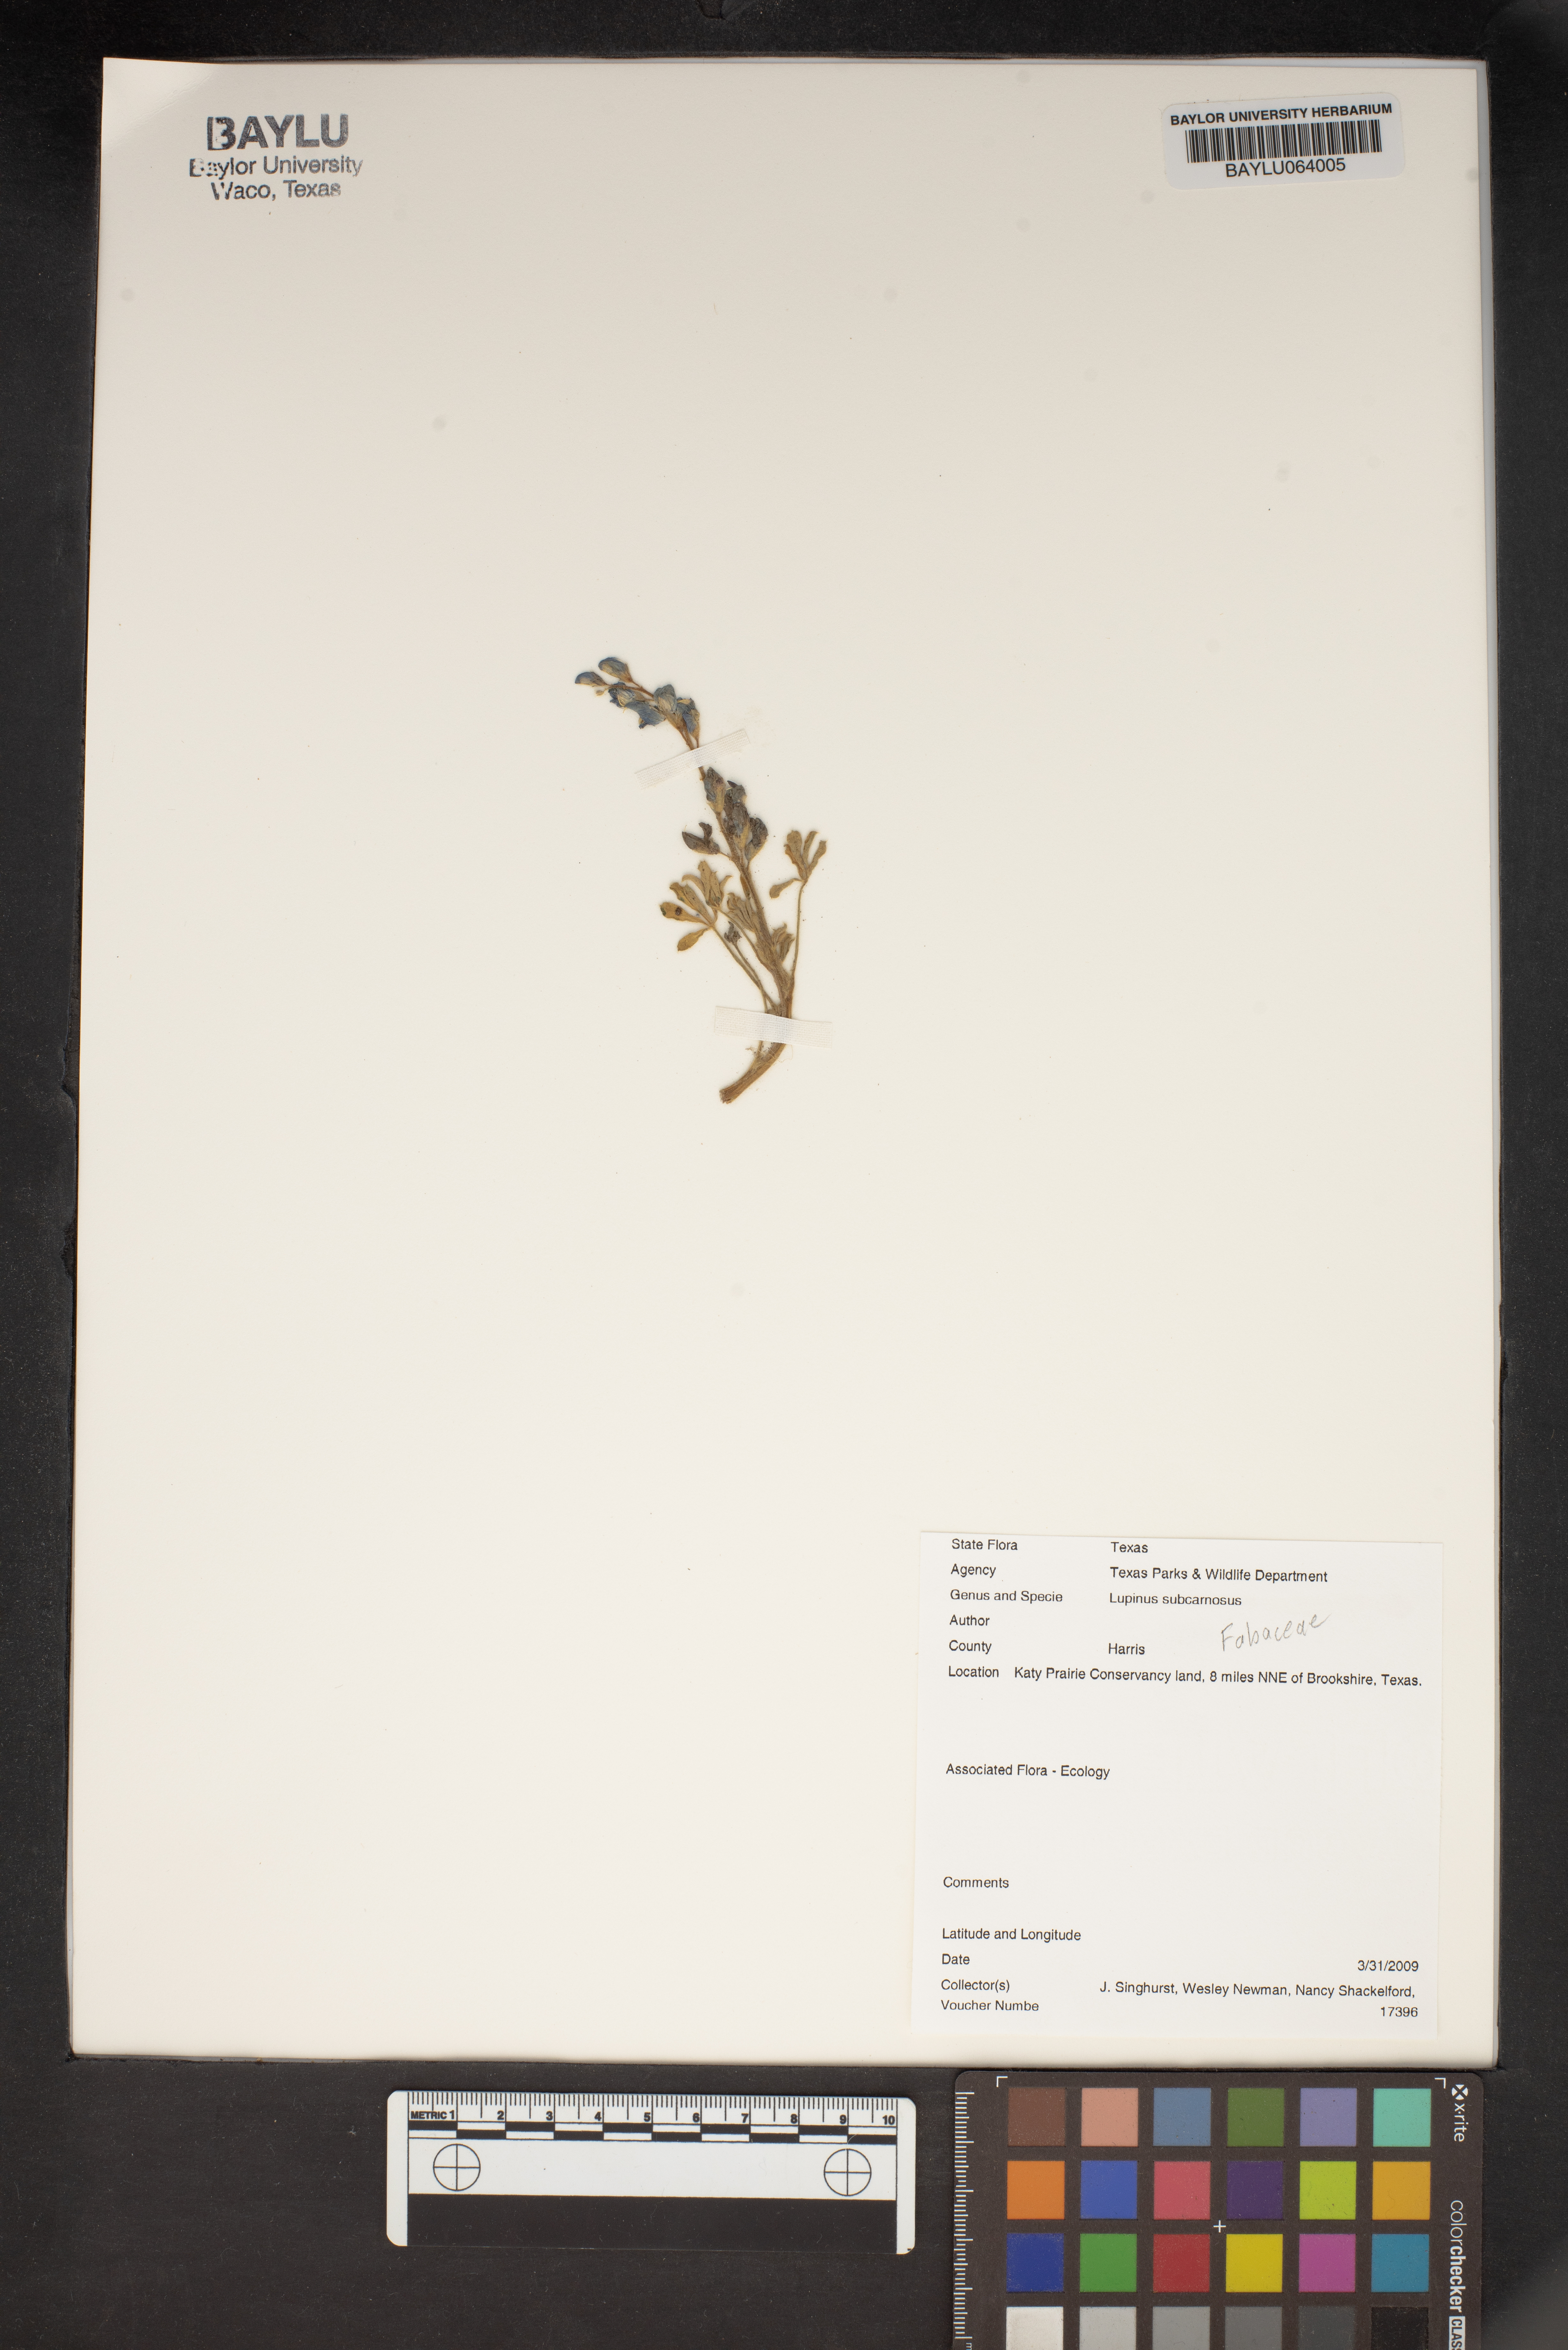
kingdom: Plantae
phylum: Tracheophyta
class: Magnoliopsida
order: Fabales
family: Fabaceae
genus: Lupinus
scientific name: Lupinus subcarnosus
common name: Texas bluebonnet
